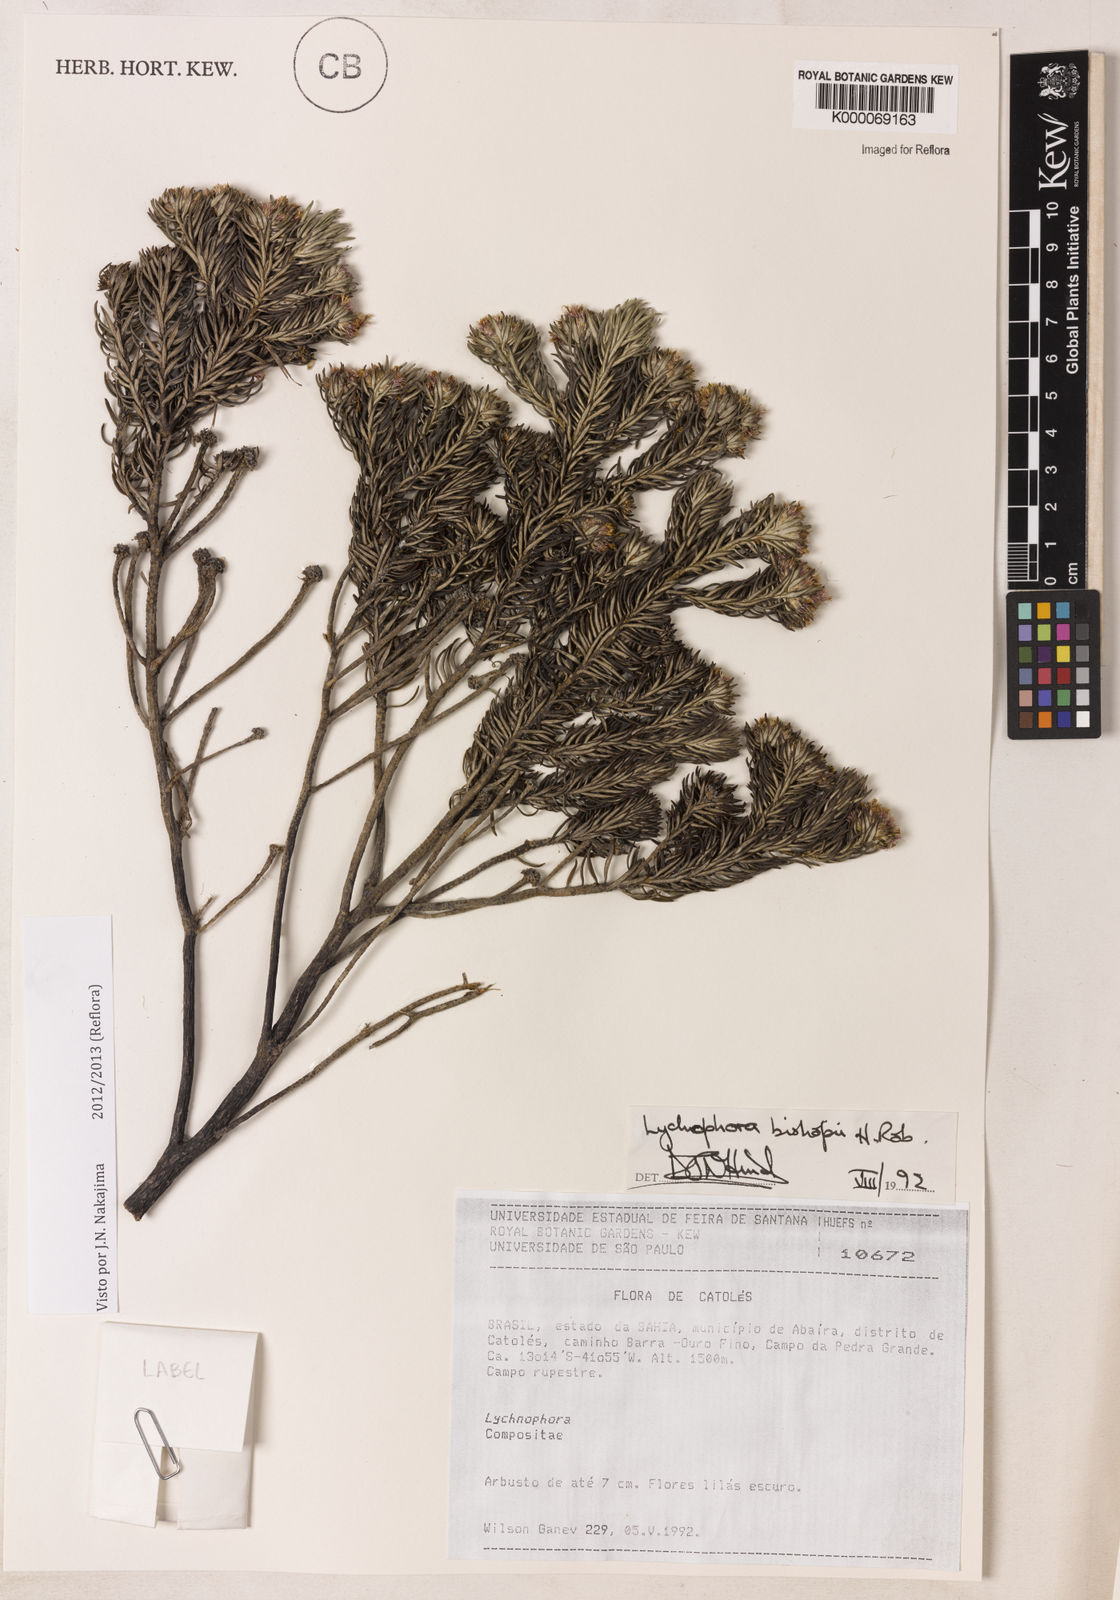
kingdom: Plantae
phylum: Tracheophyta
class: Magnoliopsida
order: Asterales
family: Asteraceae
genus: Lychnophorella
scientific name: Lychnophorella bishopii
